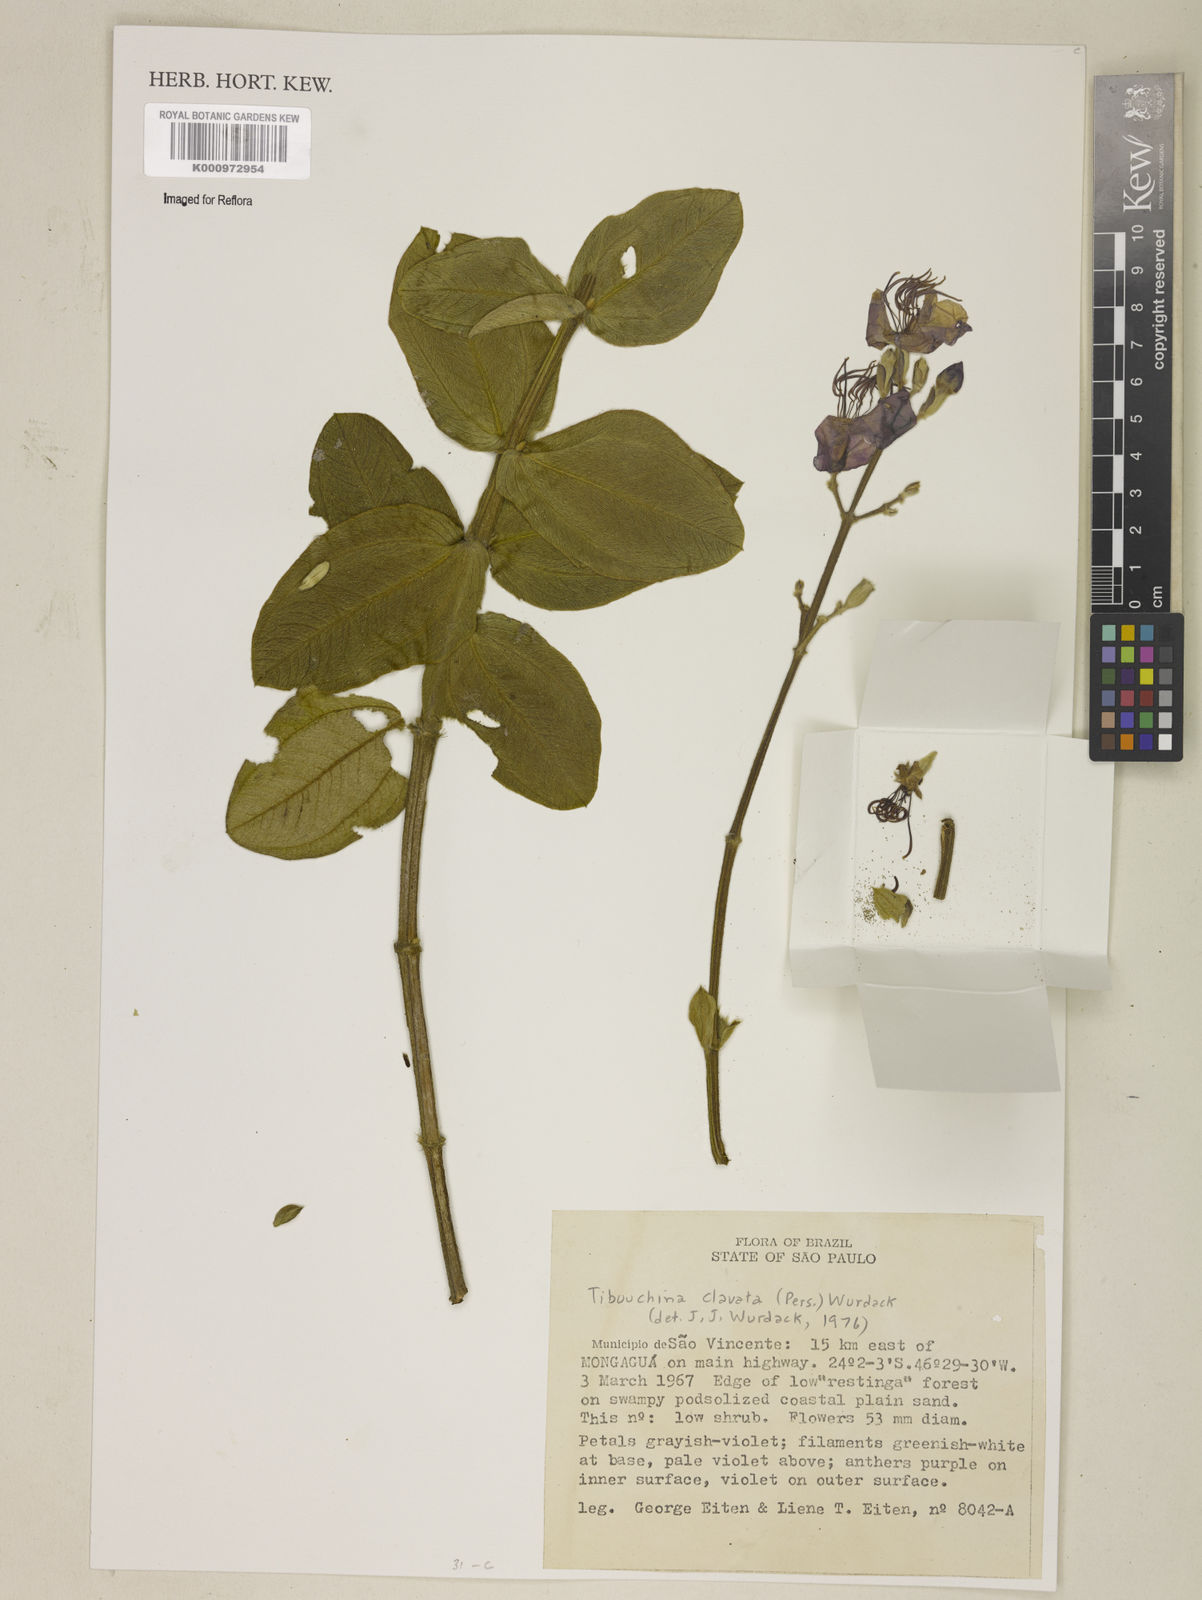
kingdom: Plantae
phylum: Tracheophyta
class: Magnoliopsida
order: Myrtales
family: Melastomataceae
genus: Pleroma
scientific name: Pleroma clavatum
